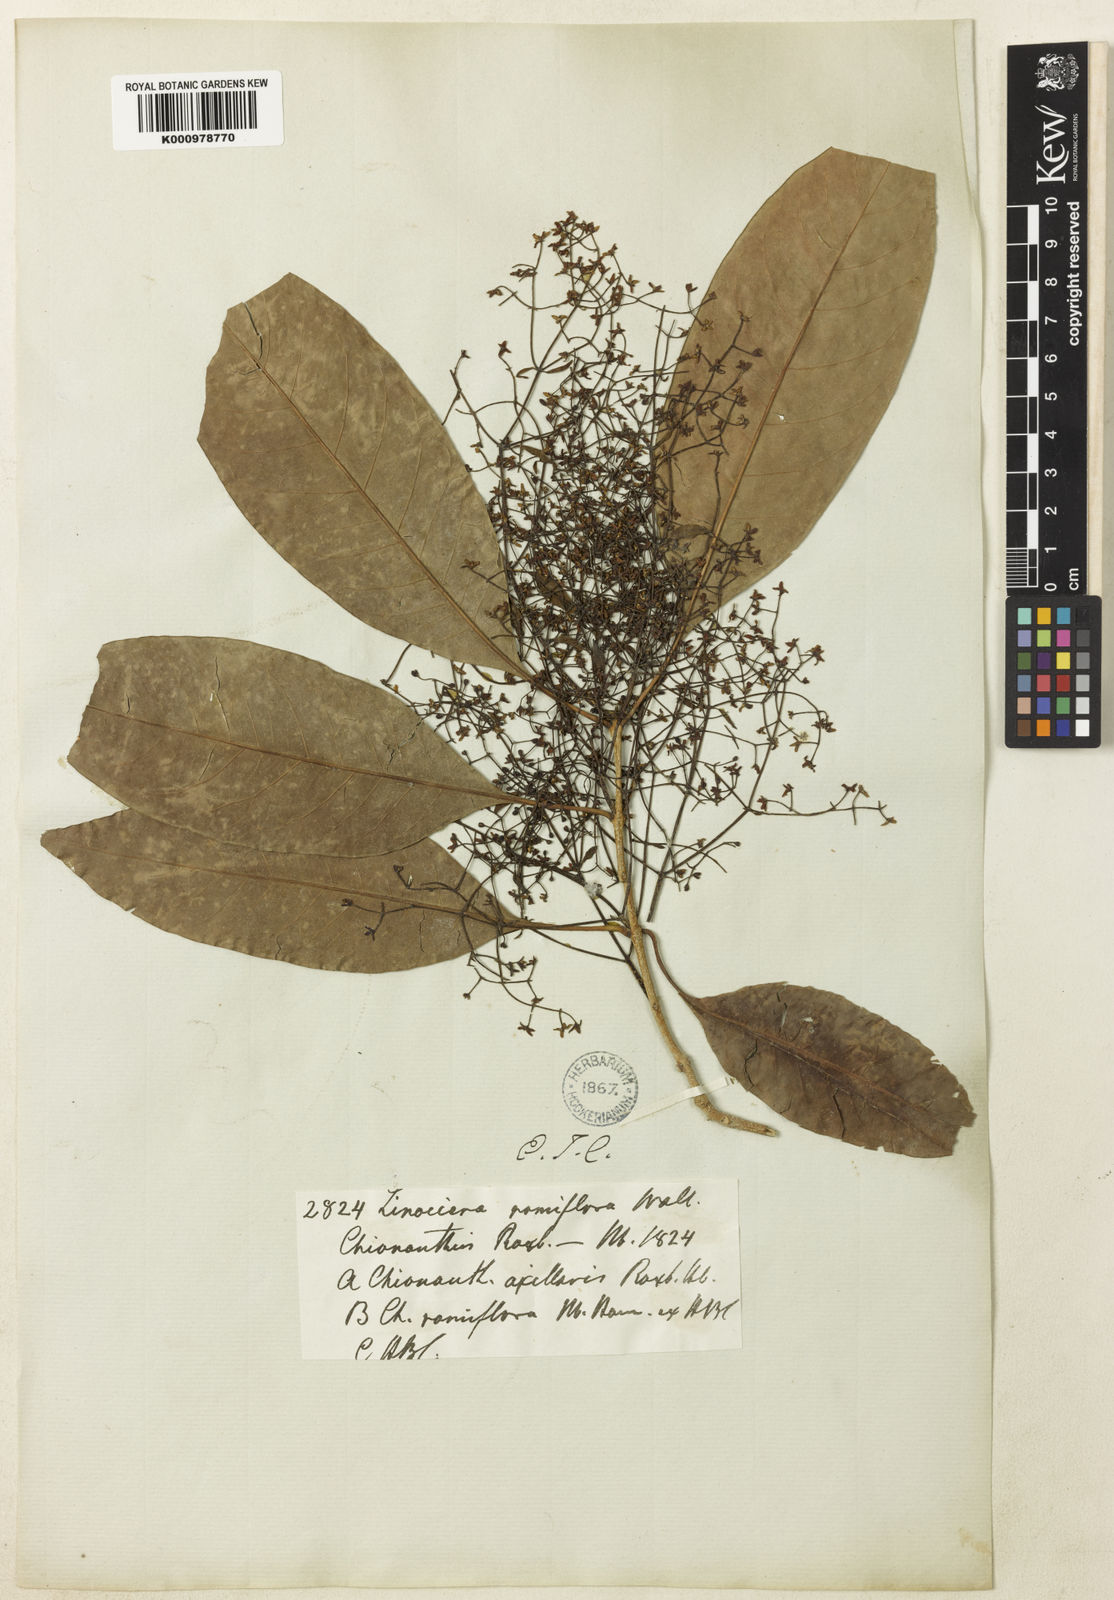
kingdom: Plantae
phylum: Tracheophyta
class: Magnoliopsida
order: Lamiales
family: Oleaceae
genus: Chionanthus
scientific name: Chionanthus ramiflorus
